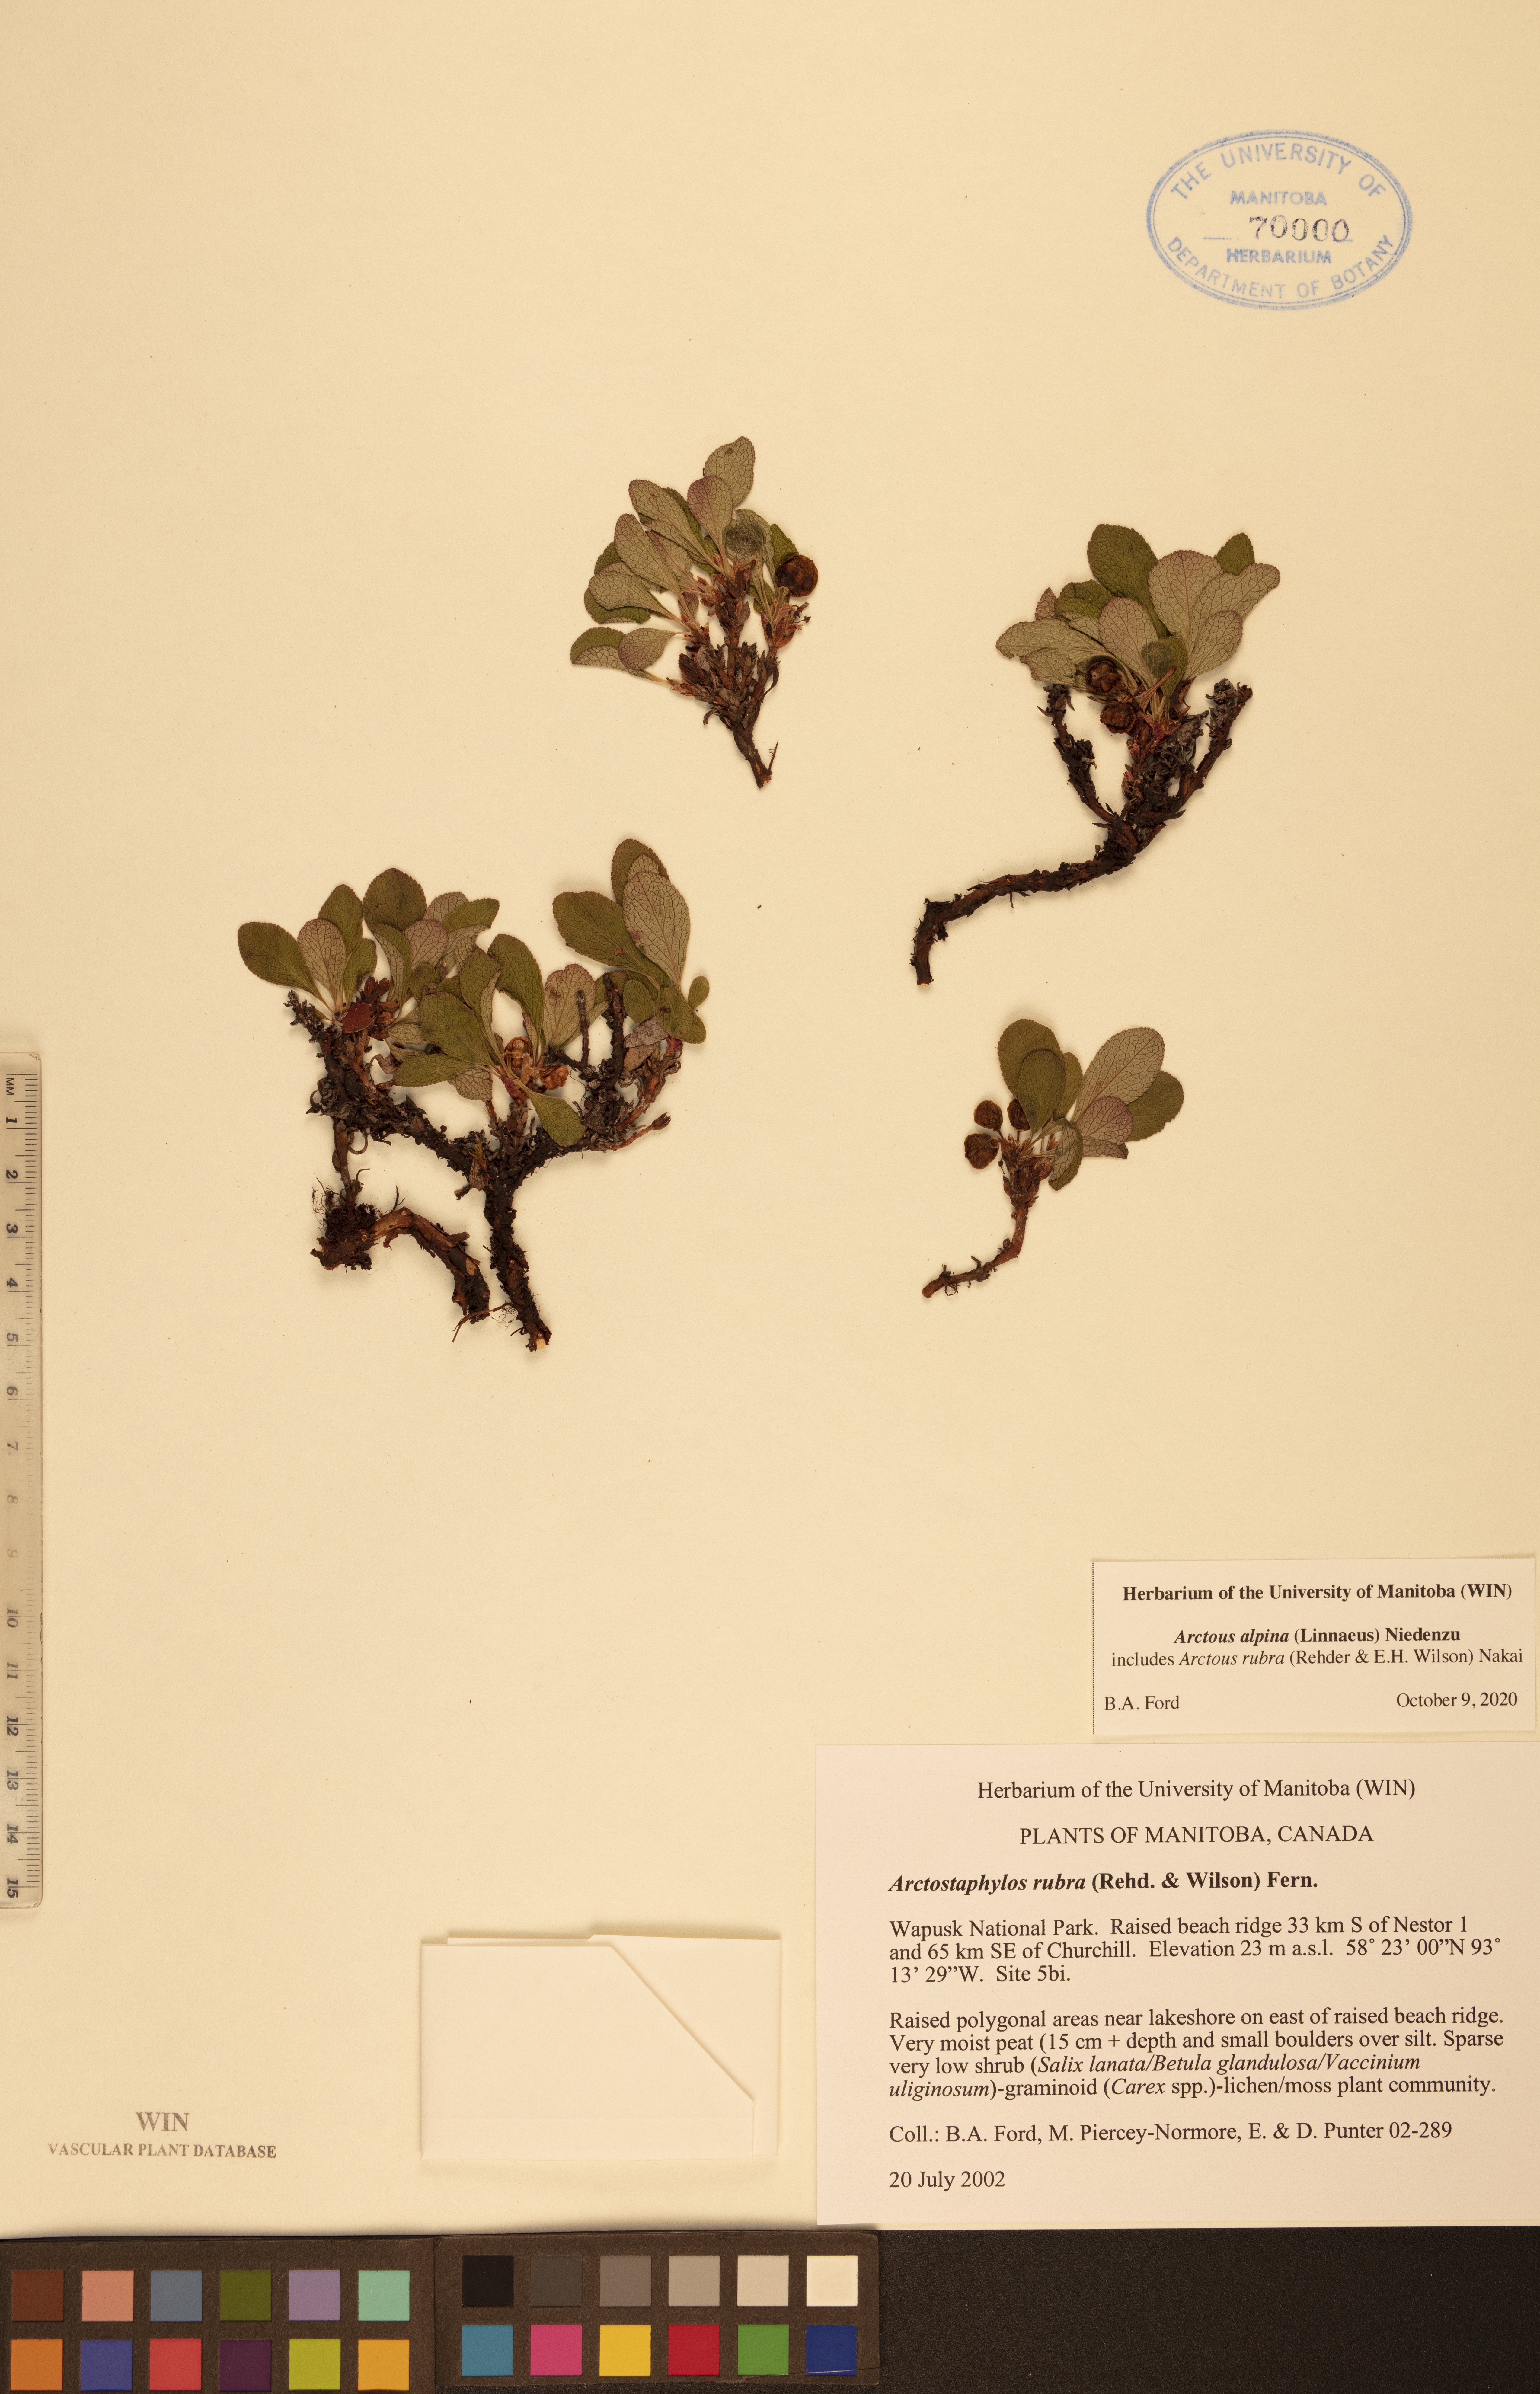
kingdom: Plantae
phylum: Tracheophyta
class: Magnoliopsida
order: Ericales
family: Ericaceae
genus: Arctostaphylos
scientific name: Arctostaphylos alpinus
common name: Alpine bearberry
